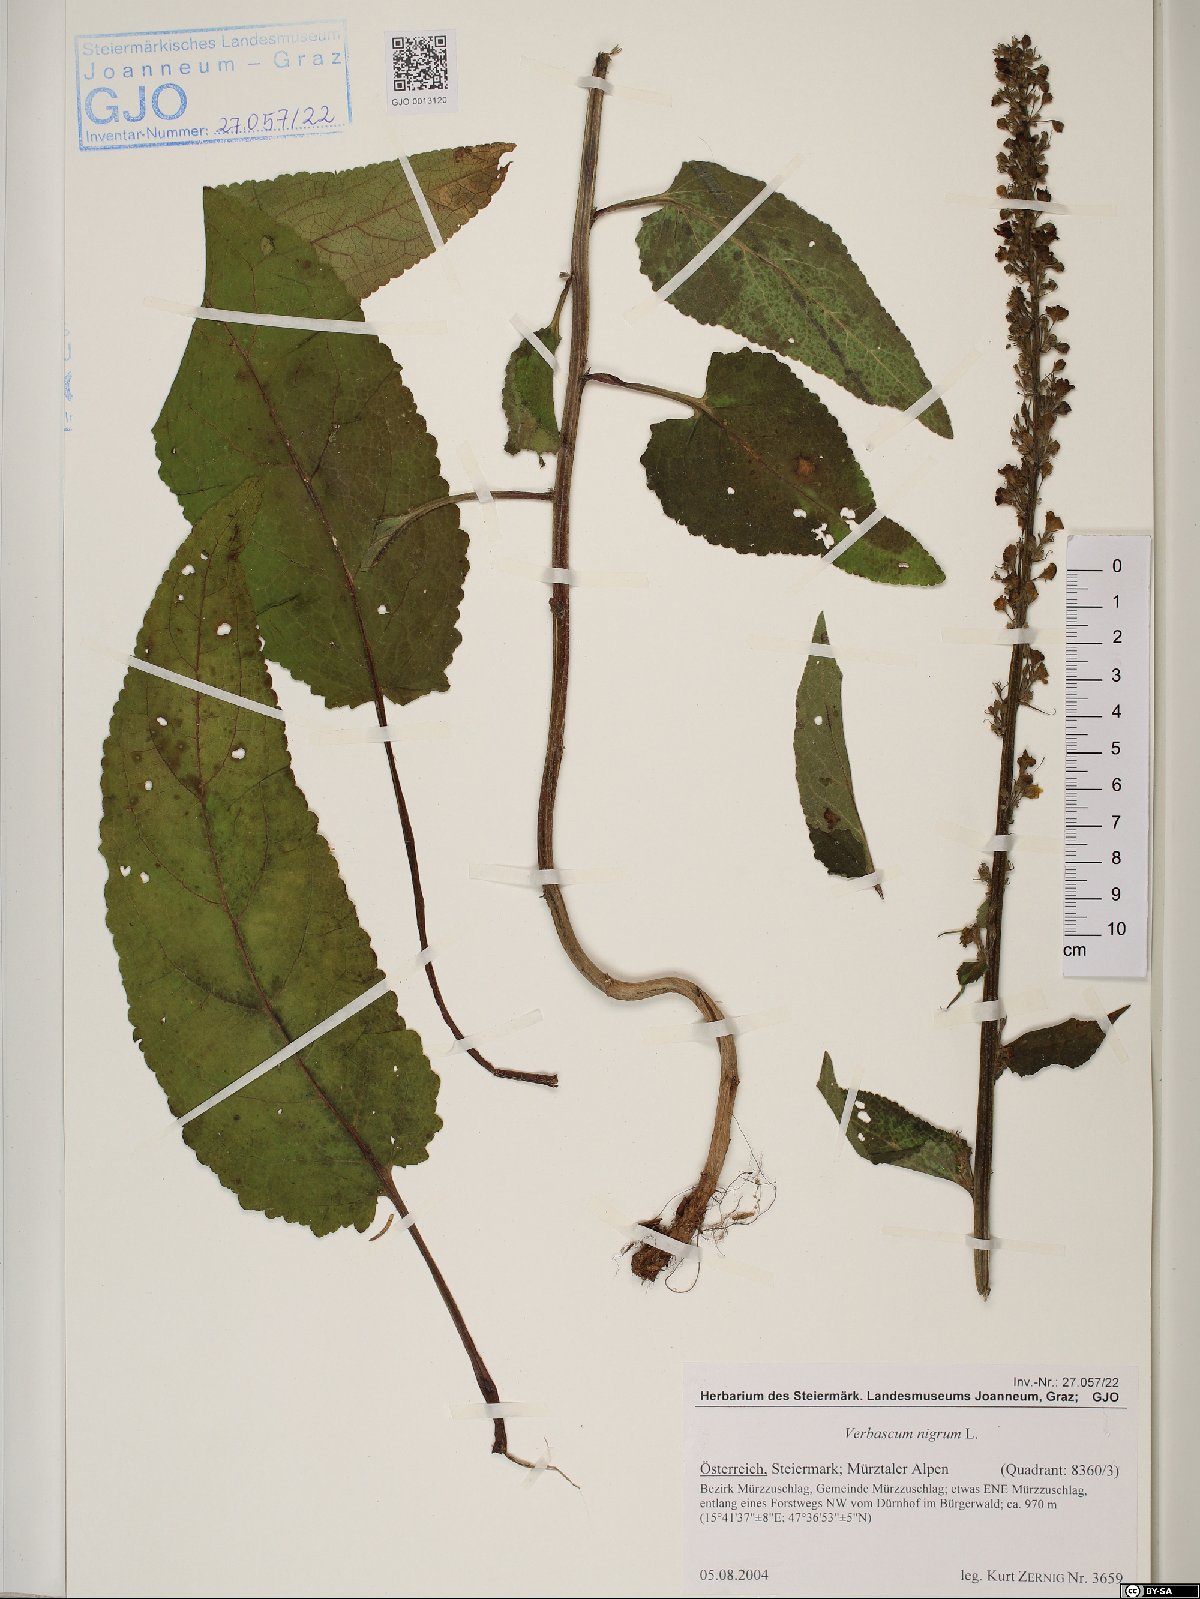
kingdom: Plantae
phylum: Tracheophyta
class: Magnoliopsida
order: Lamiales
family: Scrophulariaceae
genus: Verbascum
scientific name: Verbascum nigrum
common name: Dark mullein
